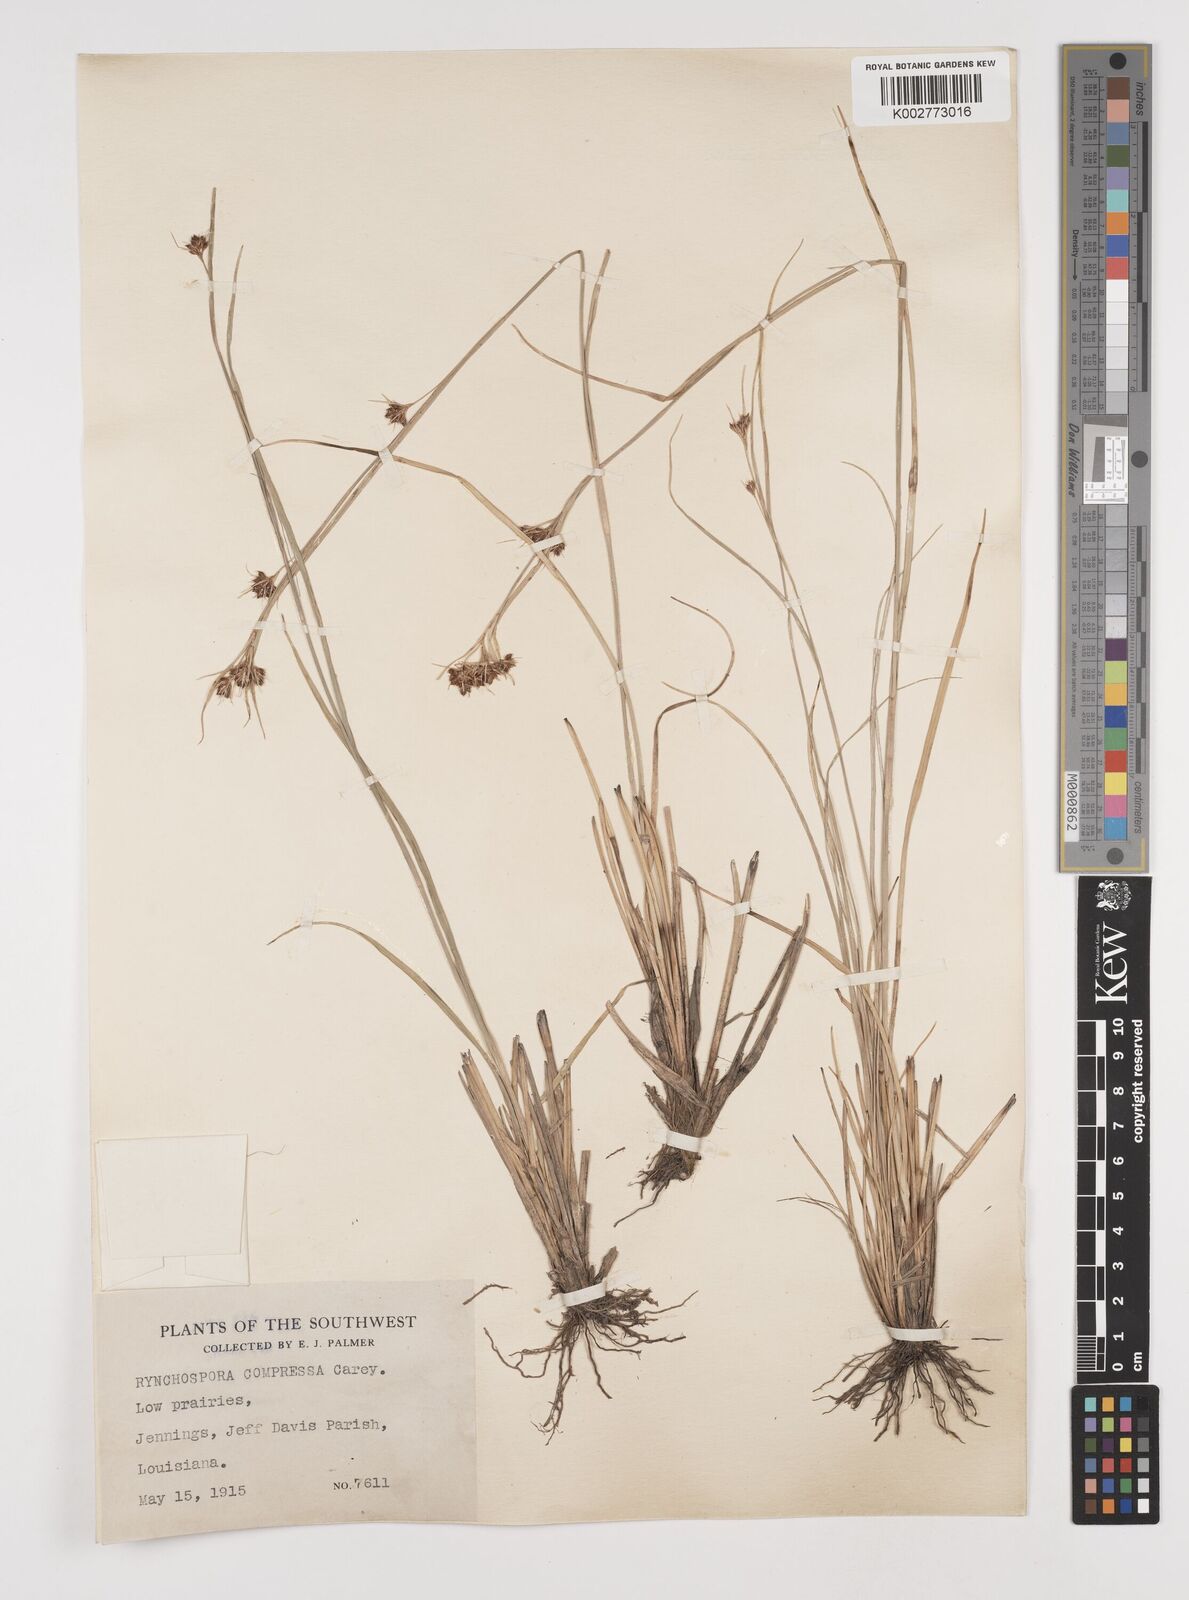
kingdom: Plantae
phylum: Tracheophyta
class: Liliopsida
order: Poales
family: Cyperaceae
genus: Rhynchospora
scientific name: Rhynchospora compressa
